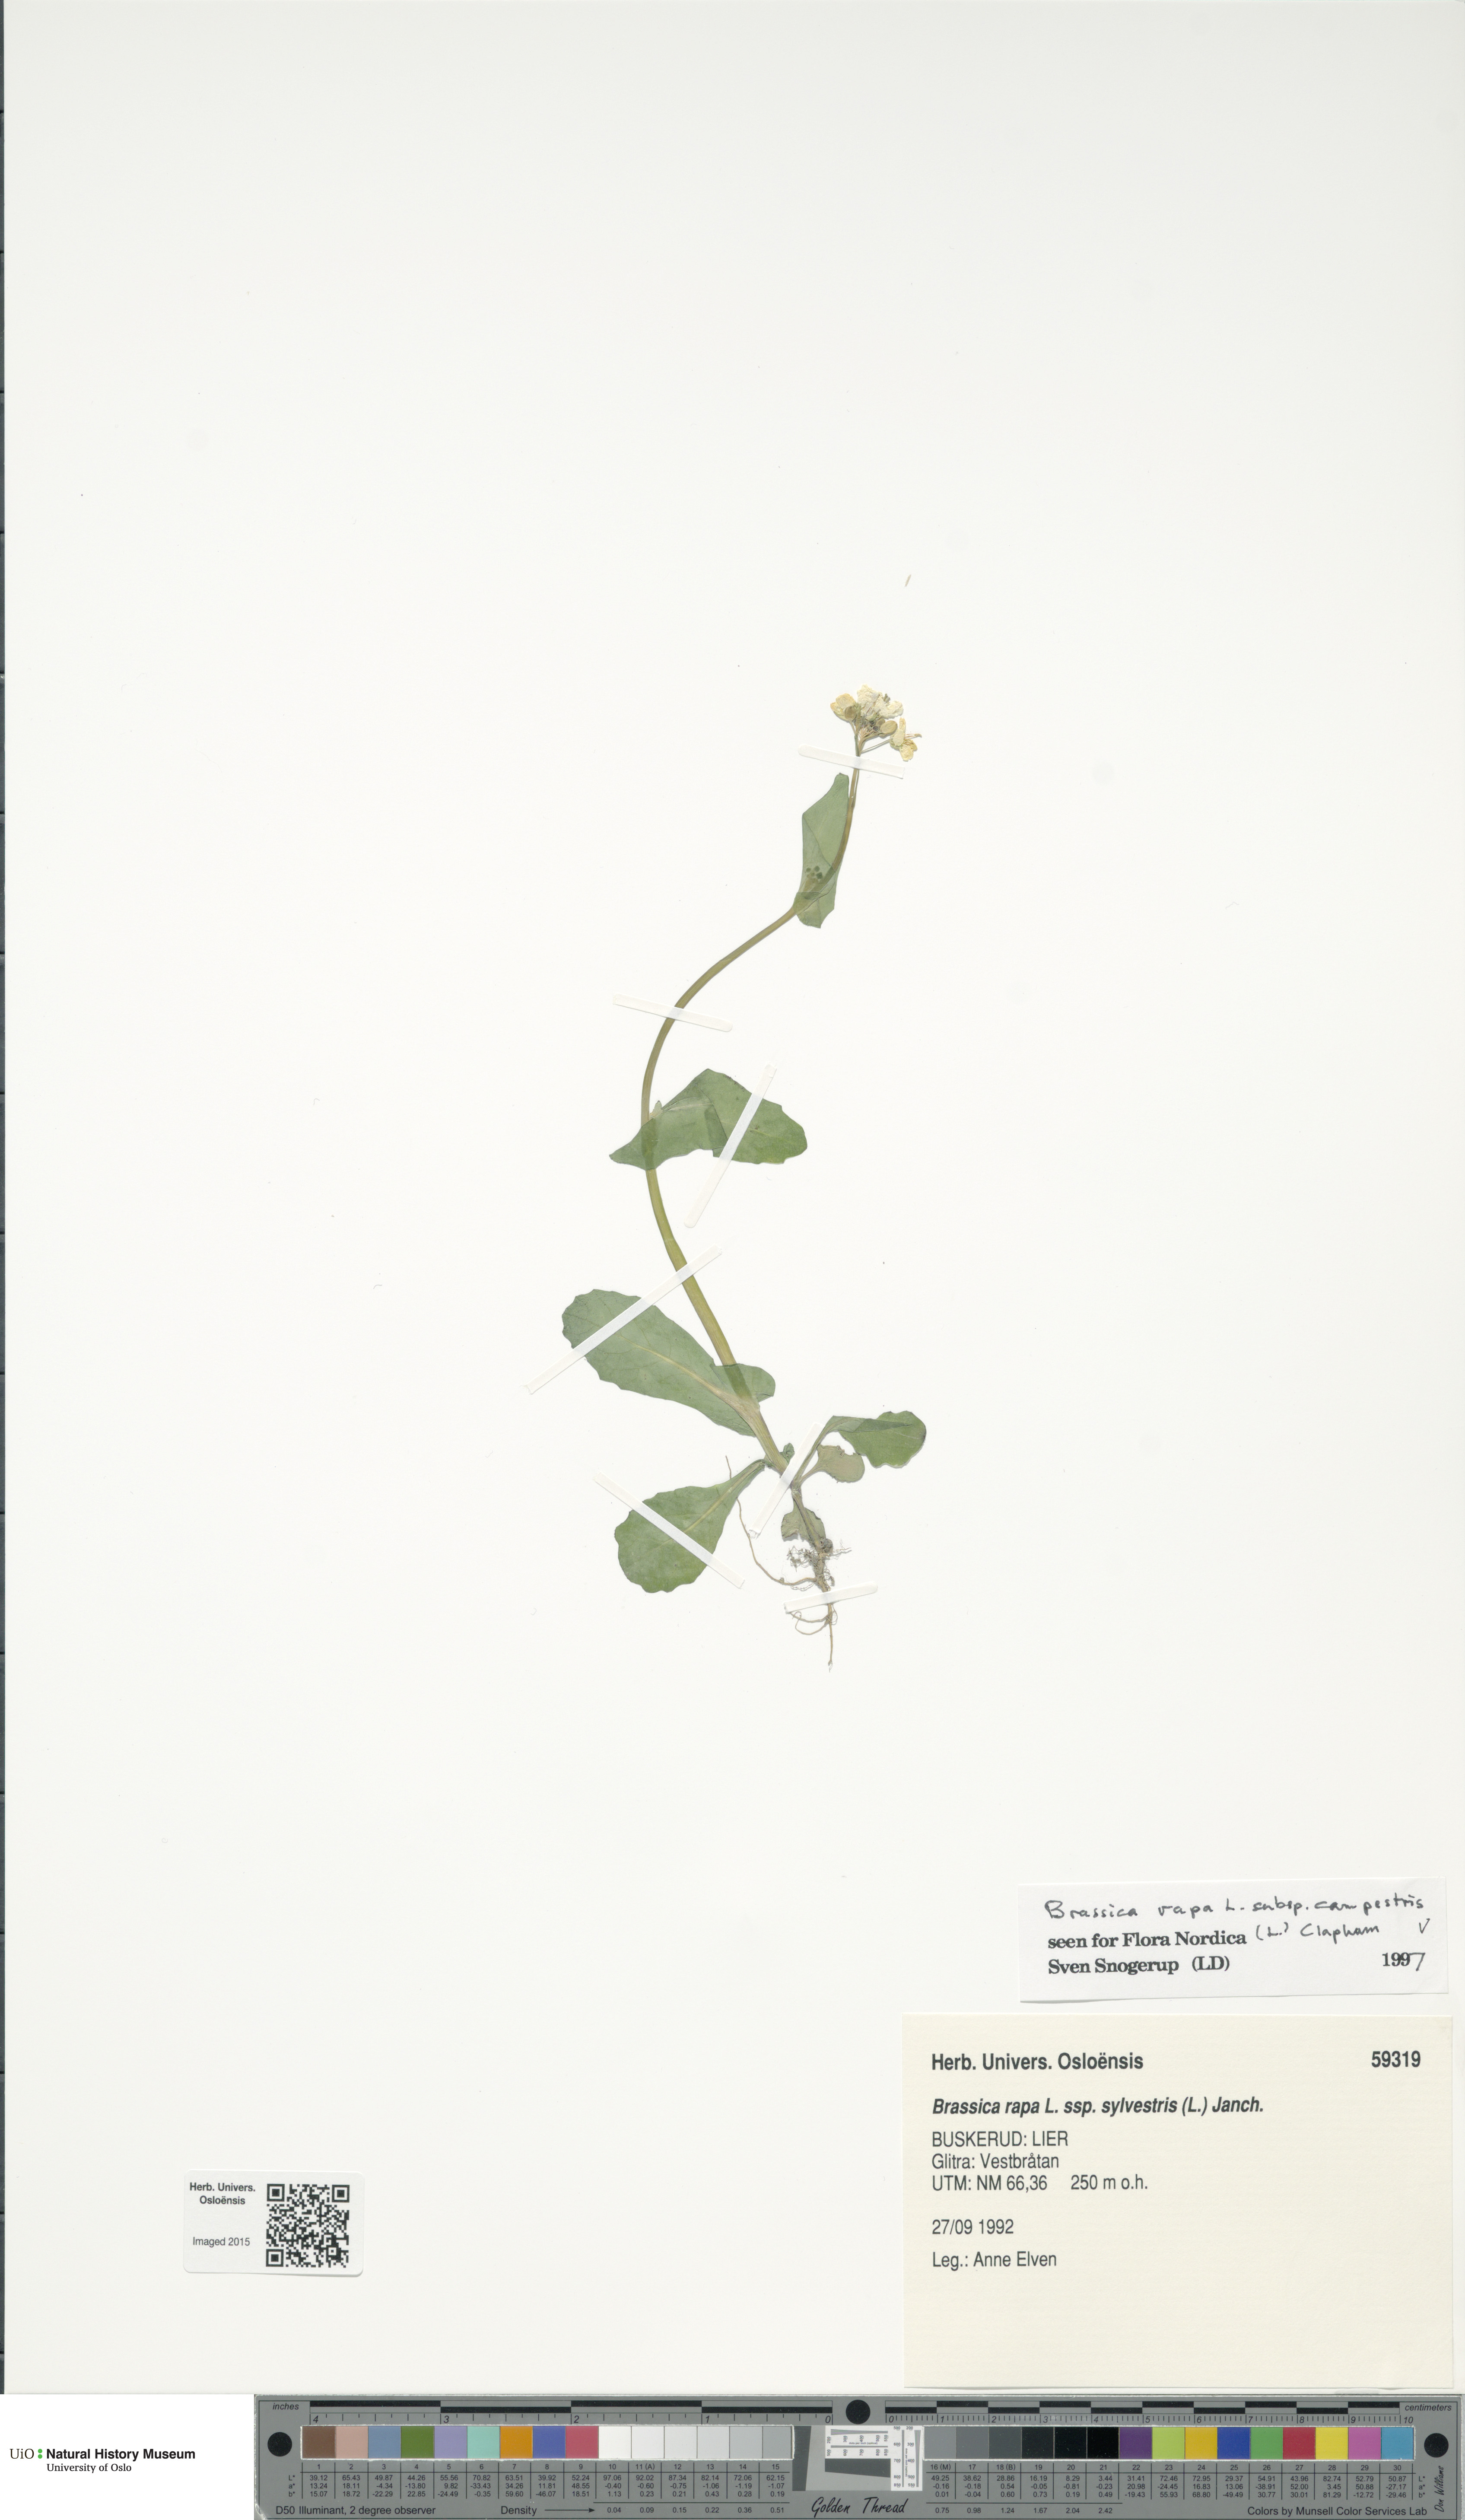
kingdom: Plantae
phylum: Tracheophyta
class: Magnoliopsida
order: Brassicales
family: Brassicaceae
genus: Brassica
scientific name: Brassica rapa
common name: Field mustard
